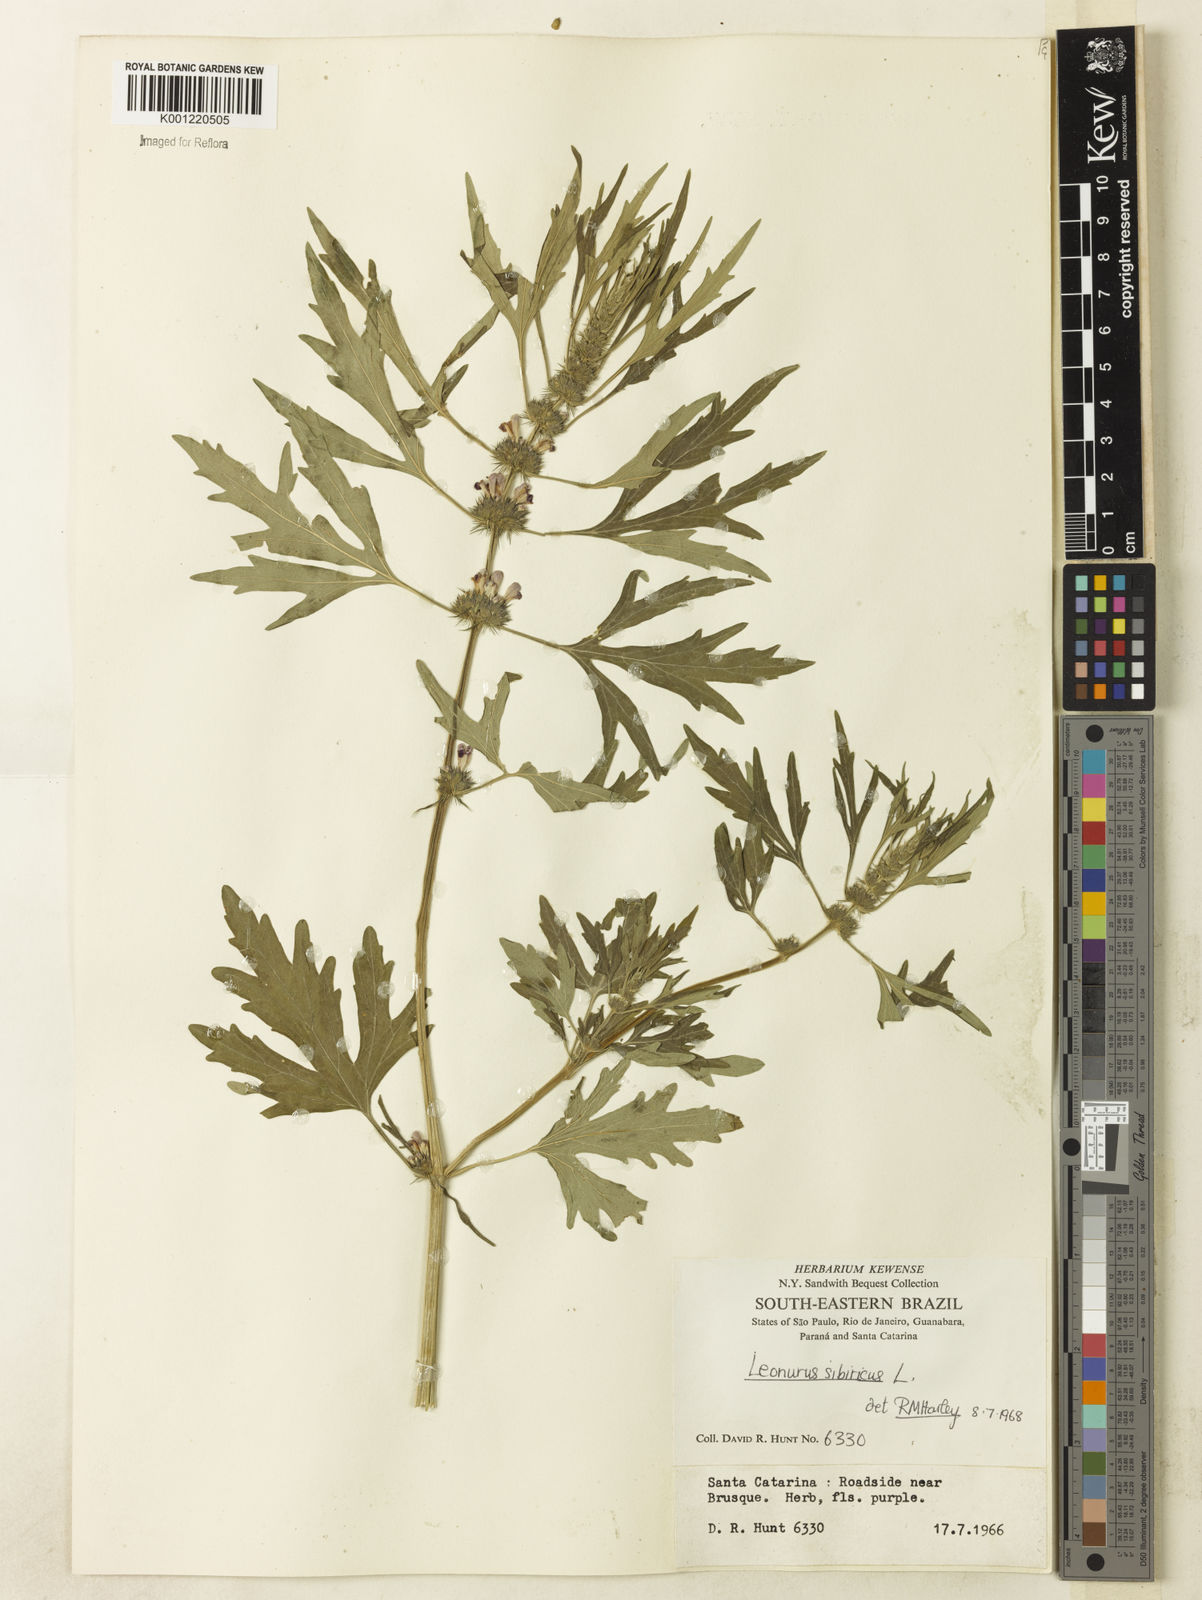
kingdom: Plantae
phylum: Tracheophyta
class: Magnoliopsida
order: Lamiales
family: Lamiaceae
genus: Leonurus
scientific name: Leonurus japonicus
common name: Honeyweed
